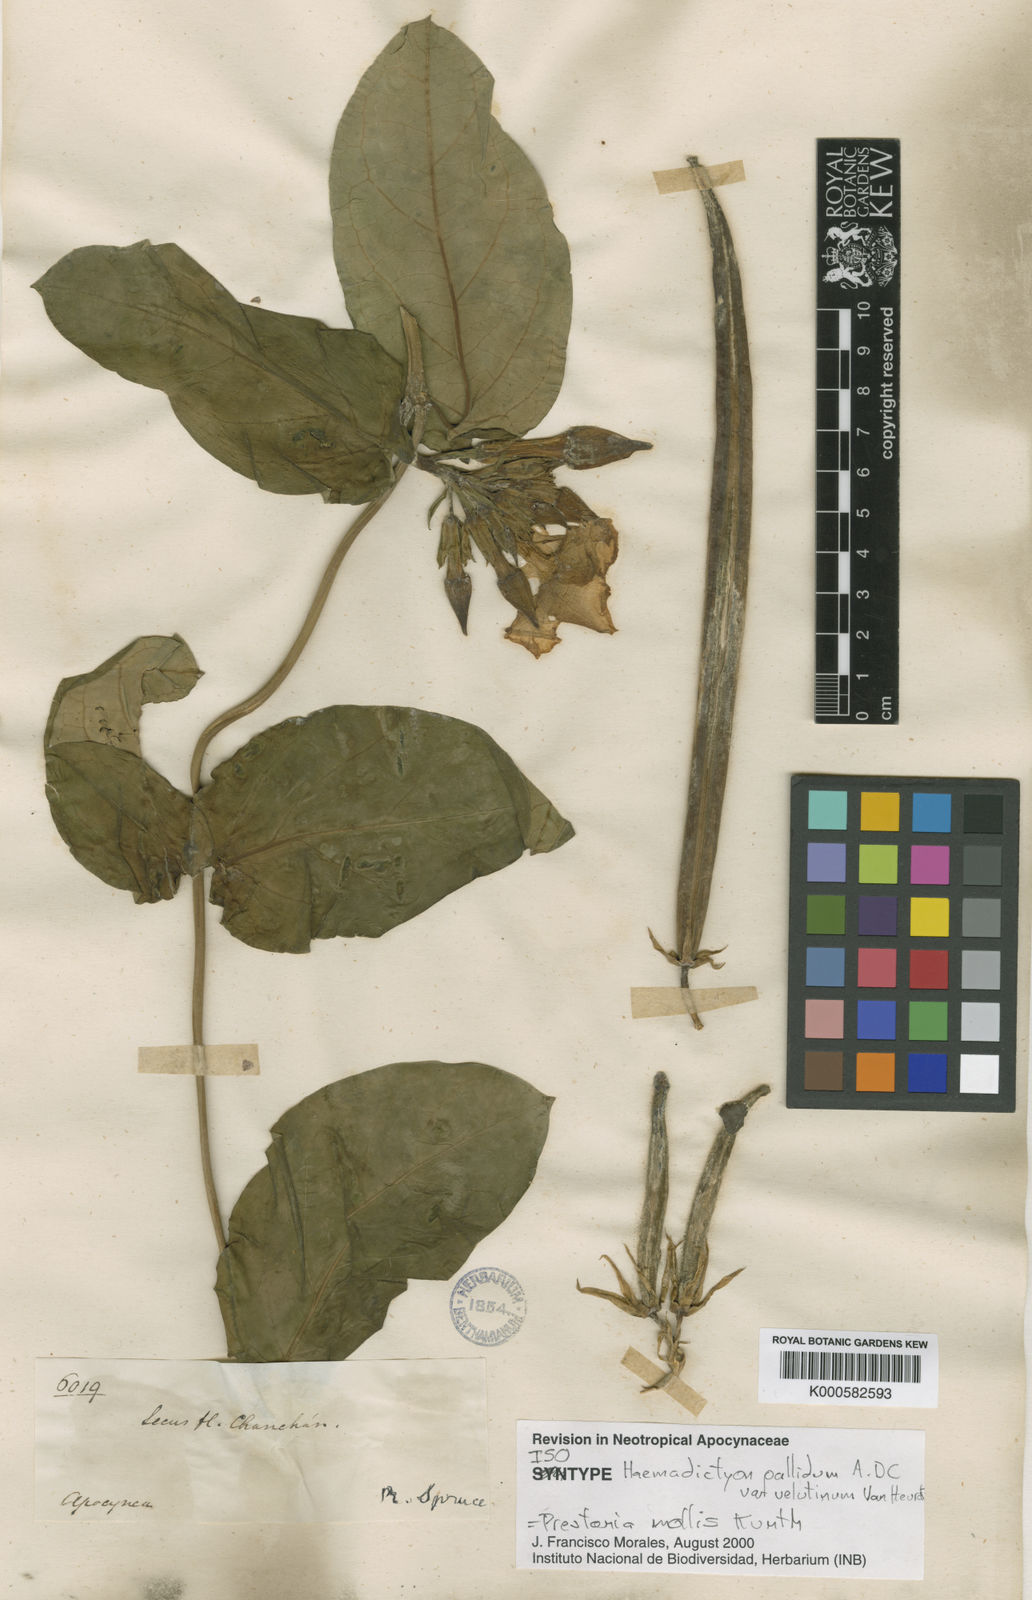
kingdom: Plantae
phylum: Tracheophyta
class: Magnoliopsida
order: Gentianales
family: Apocynaceae
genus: Prestonia
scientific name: Prestonia mollis
